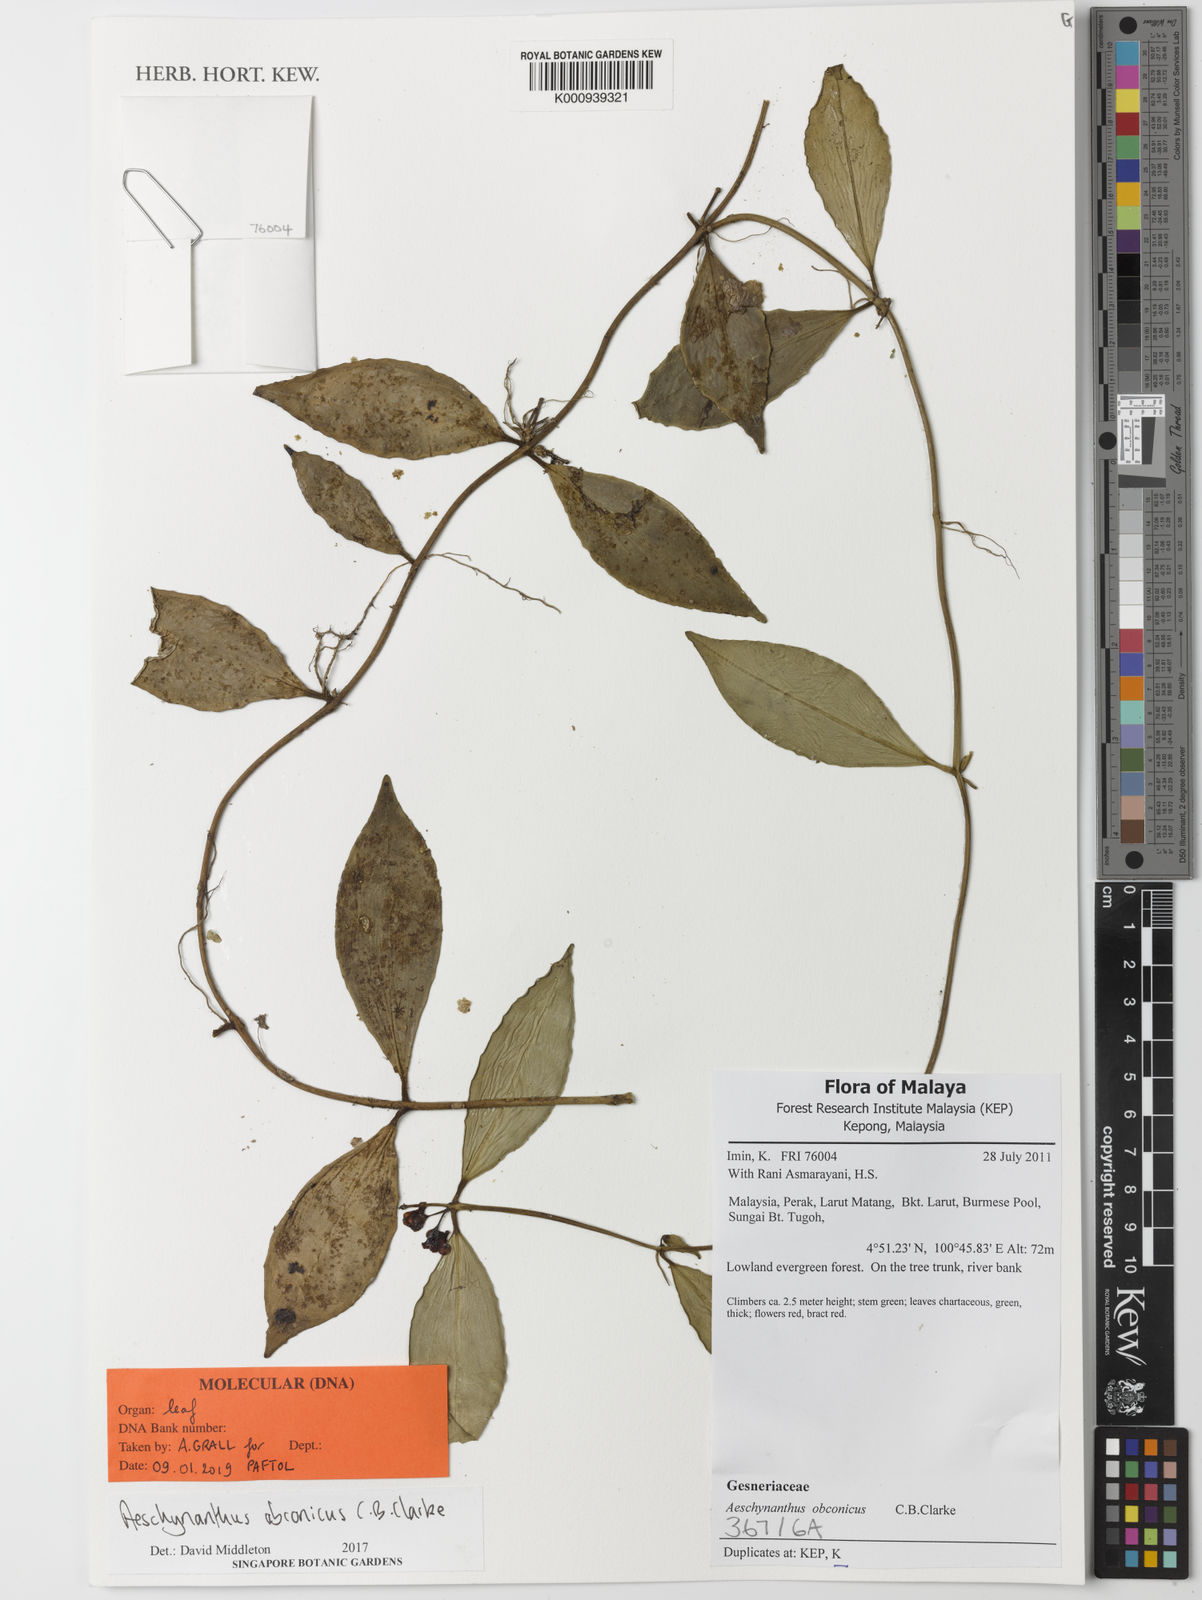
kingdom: Plantae
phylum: Tracheophyta
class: Magnoliopsida
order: Lamiales
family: Gesneriaceae
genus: Aeschynanthus
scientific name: Aeschynanthus obconicus
